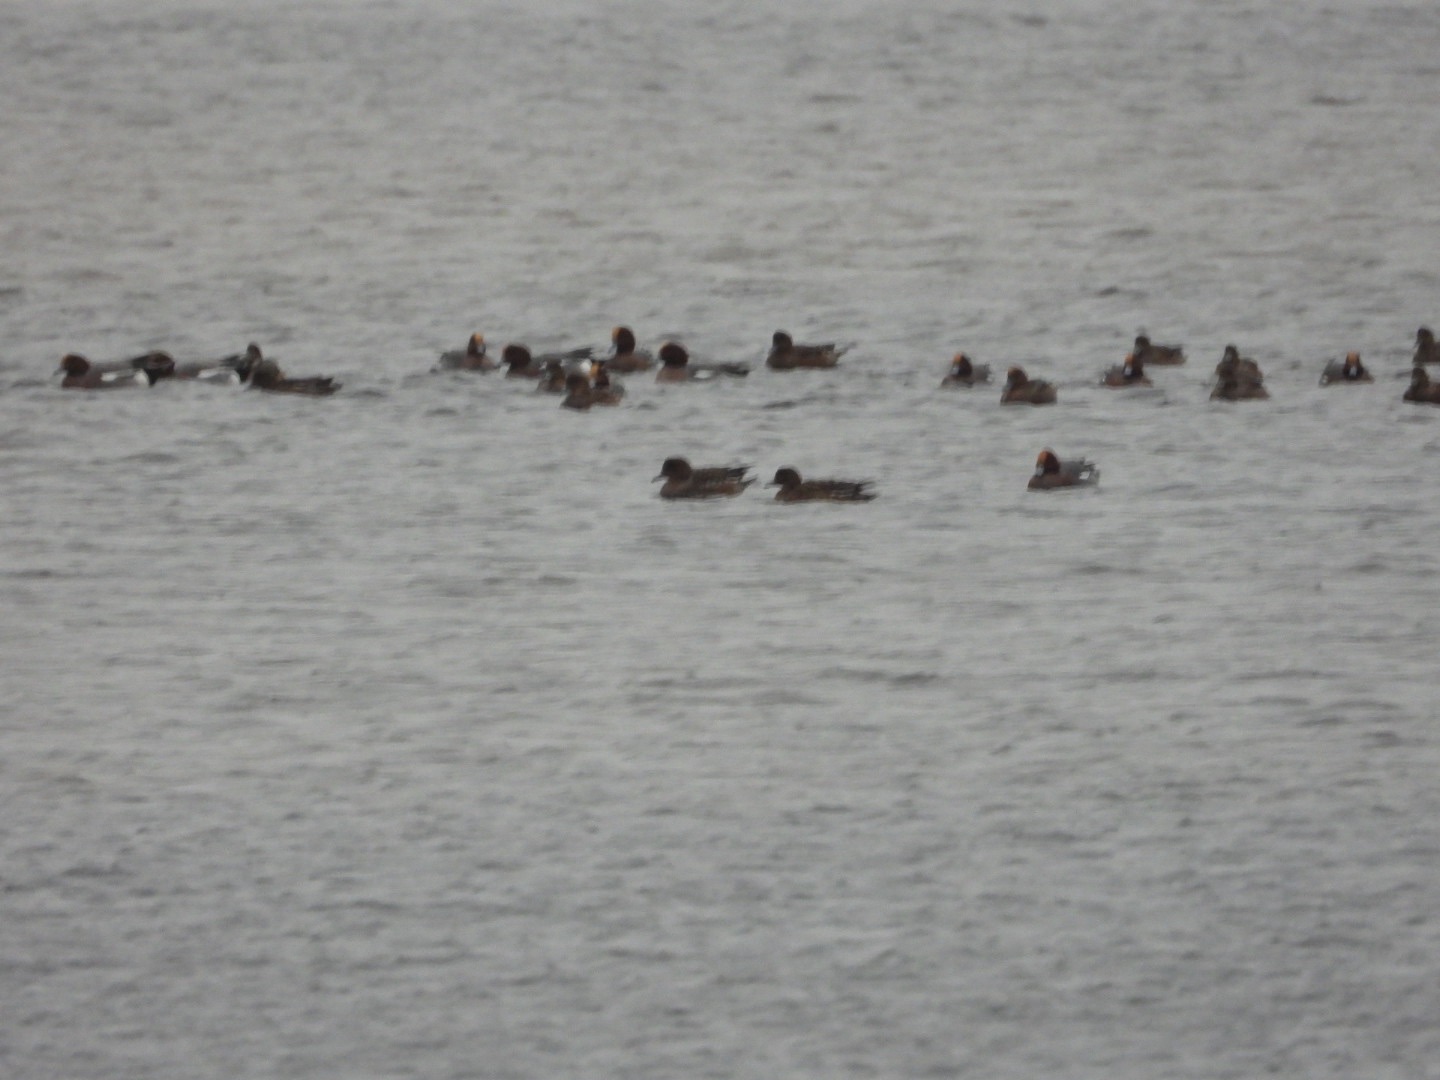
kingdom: Animalia
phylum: Chordata
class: Aves
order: Anseriformes
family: Anatidae
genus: Mareca
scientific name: Mareca penelope
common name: Pibeand
